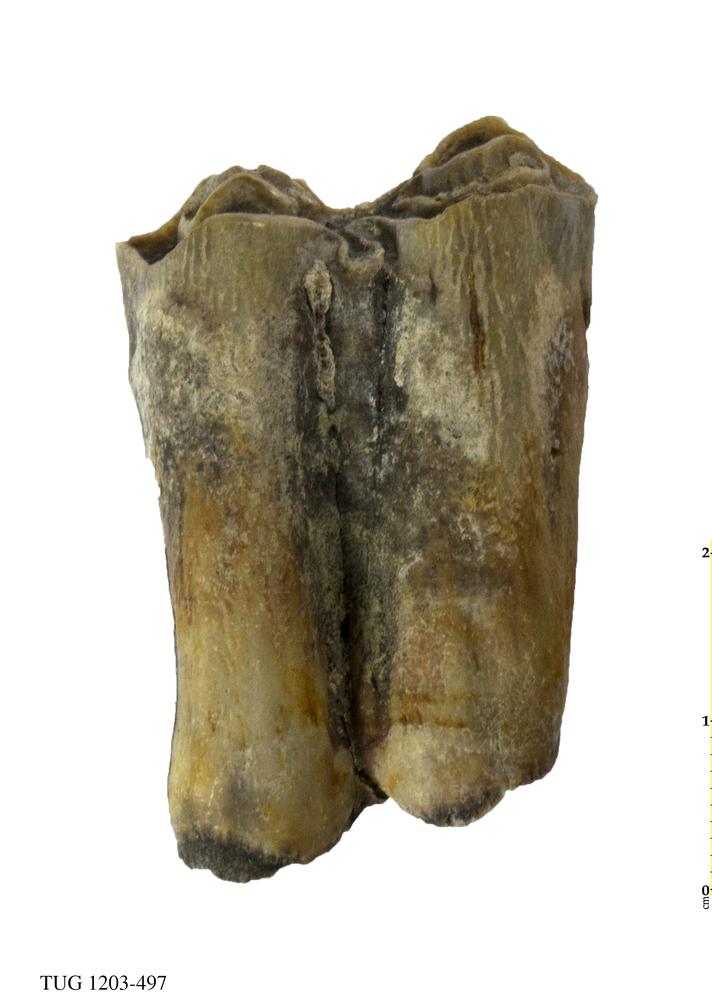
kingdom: Animalia
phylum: Chordata
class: Mammalia
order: Artiodactyla
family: Bovidae
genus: Bos
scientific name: Bos
